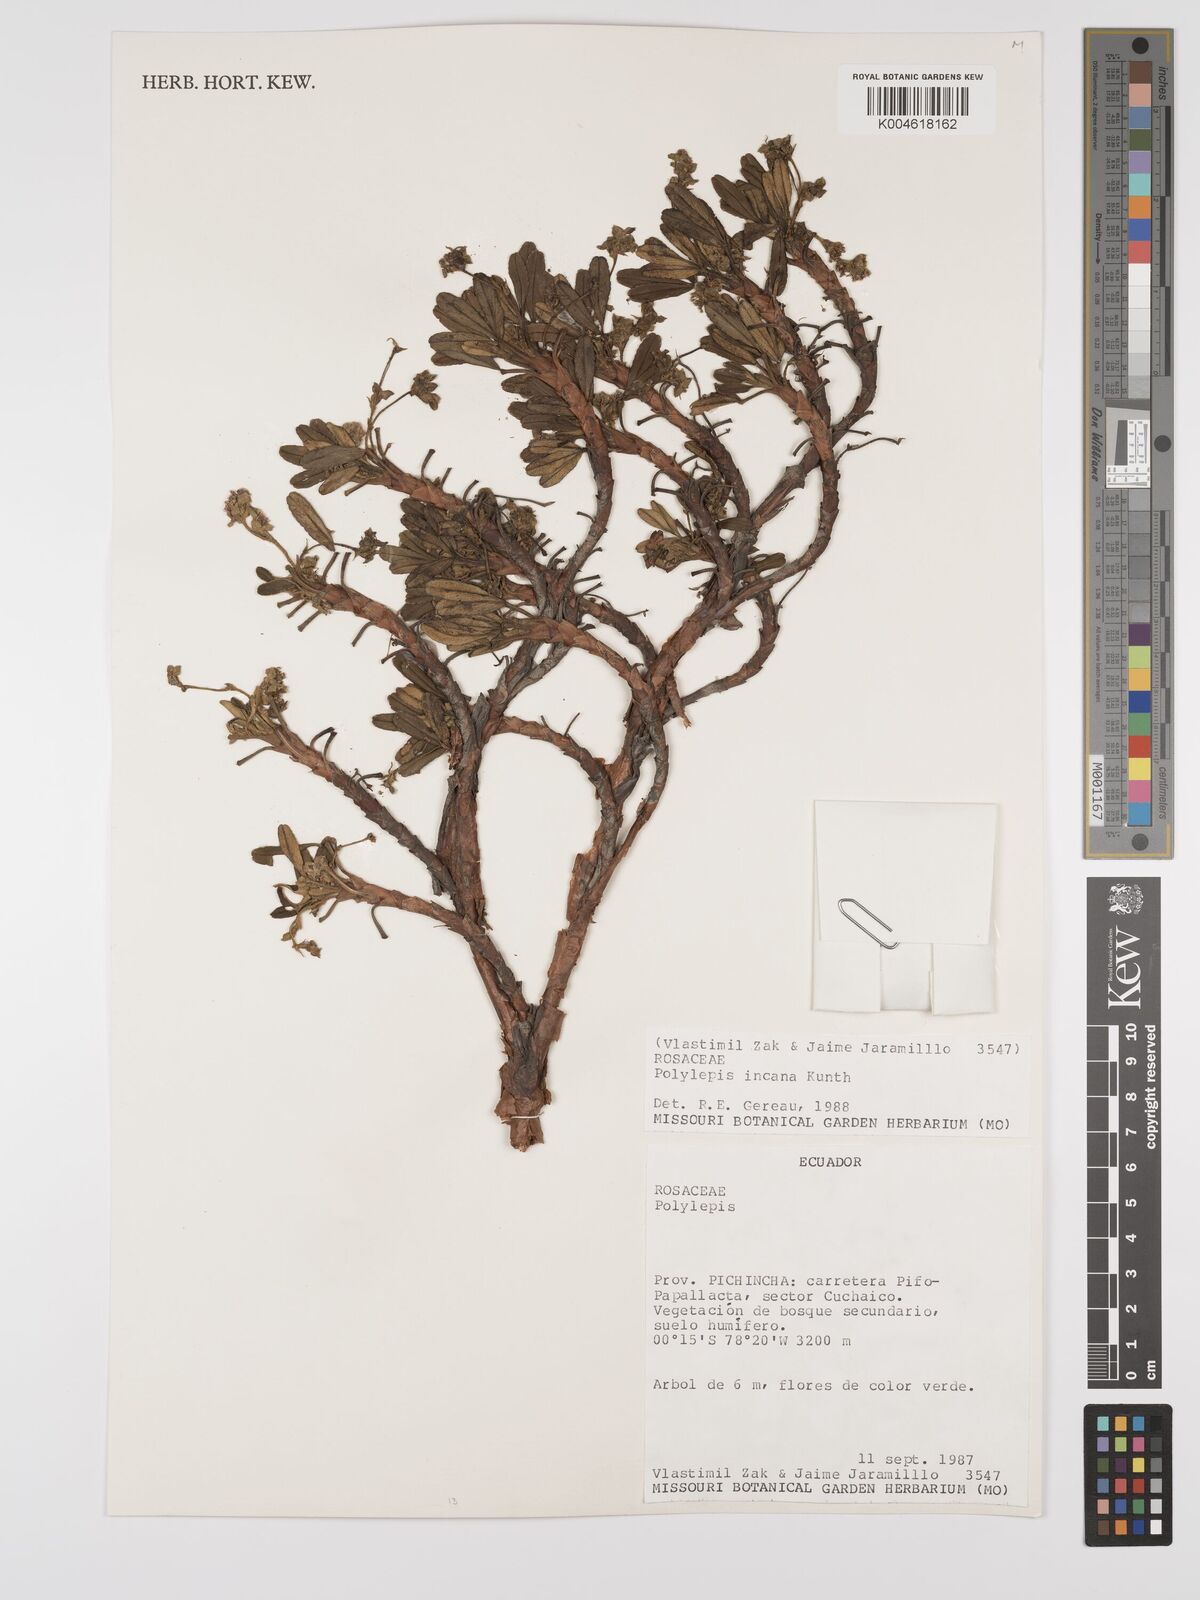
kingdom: Plantae
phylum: Tracheophyta
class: Magnoliopsida
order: Rosales
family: Rosaceae
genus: Polylepis
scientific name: Polylepis incana
